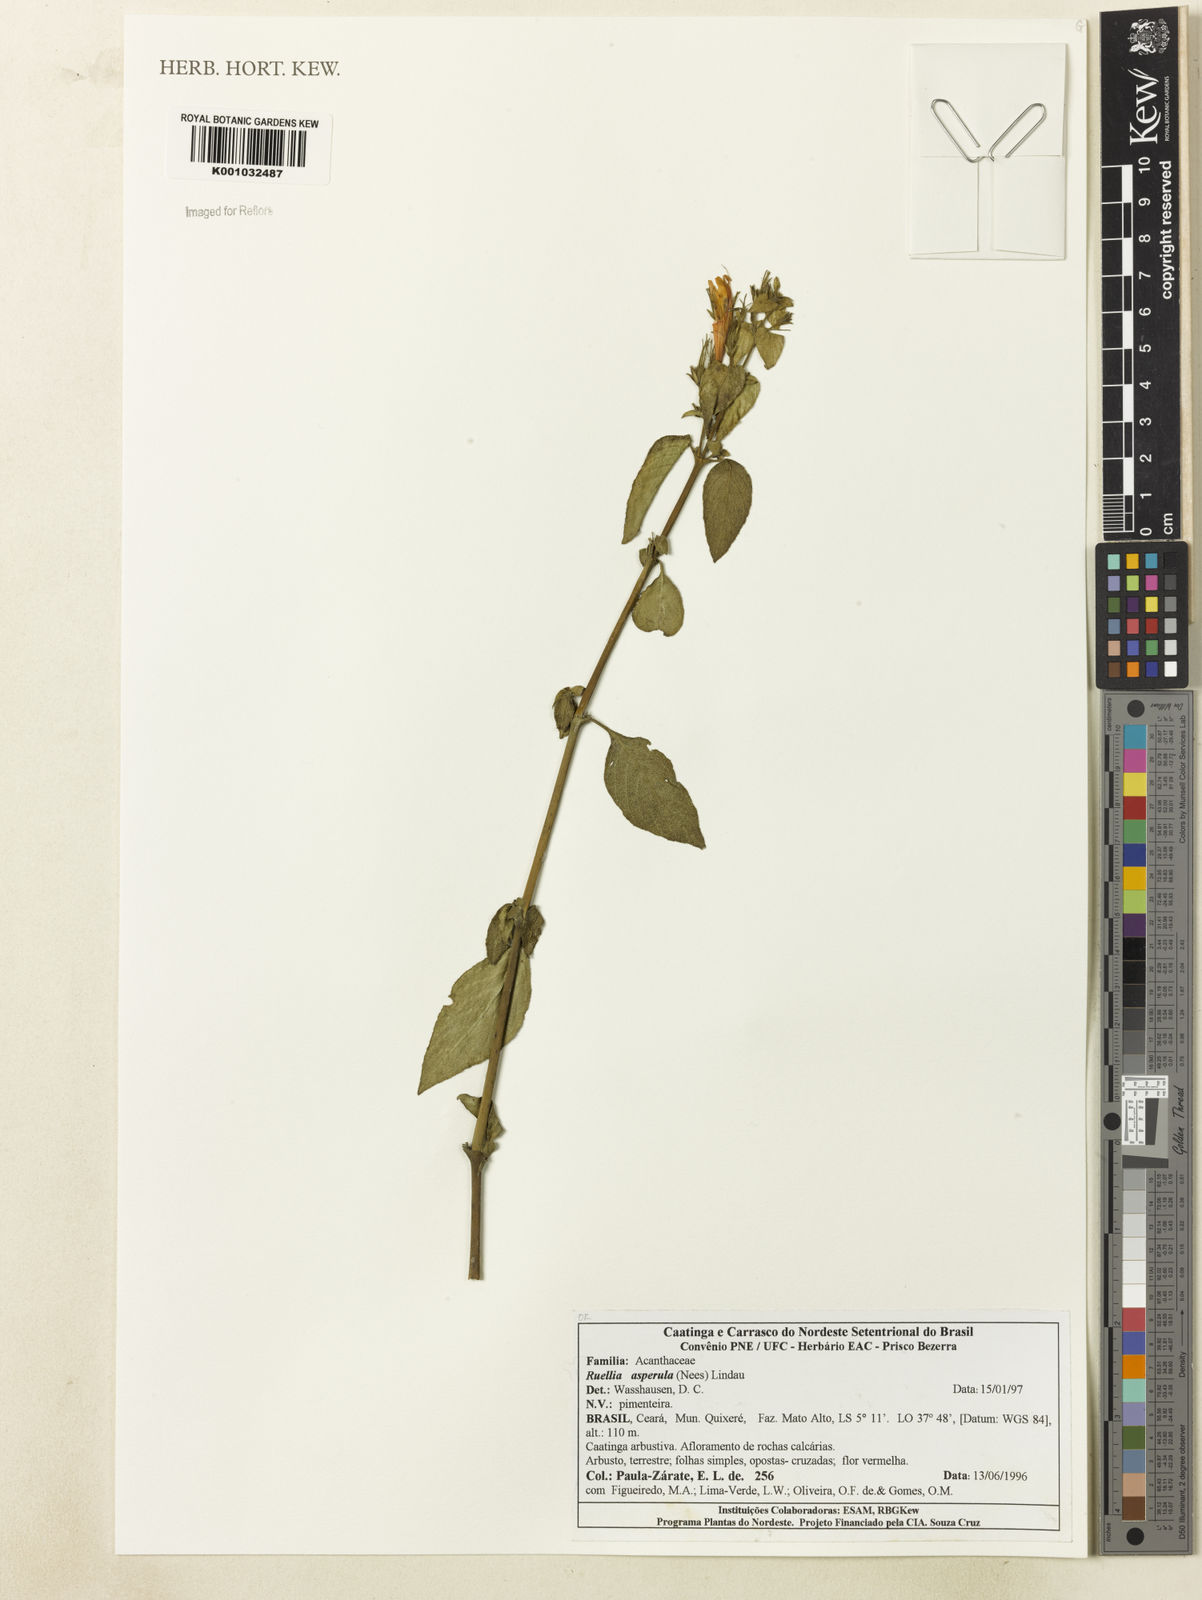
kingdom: Plantae
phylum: Tracheophyta
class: Magnoliopsida
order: Lamiales
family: Acanthaceae
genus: Ruellia
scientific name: Ruellia asperula
